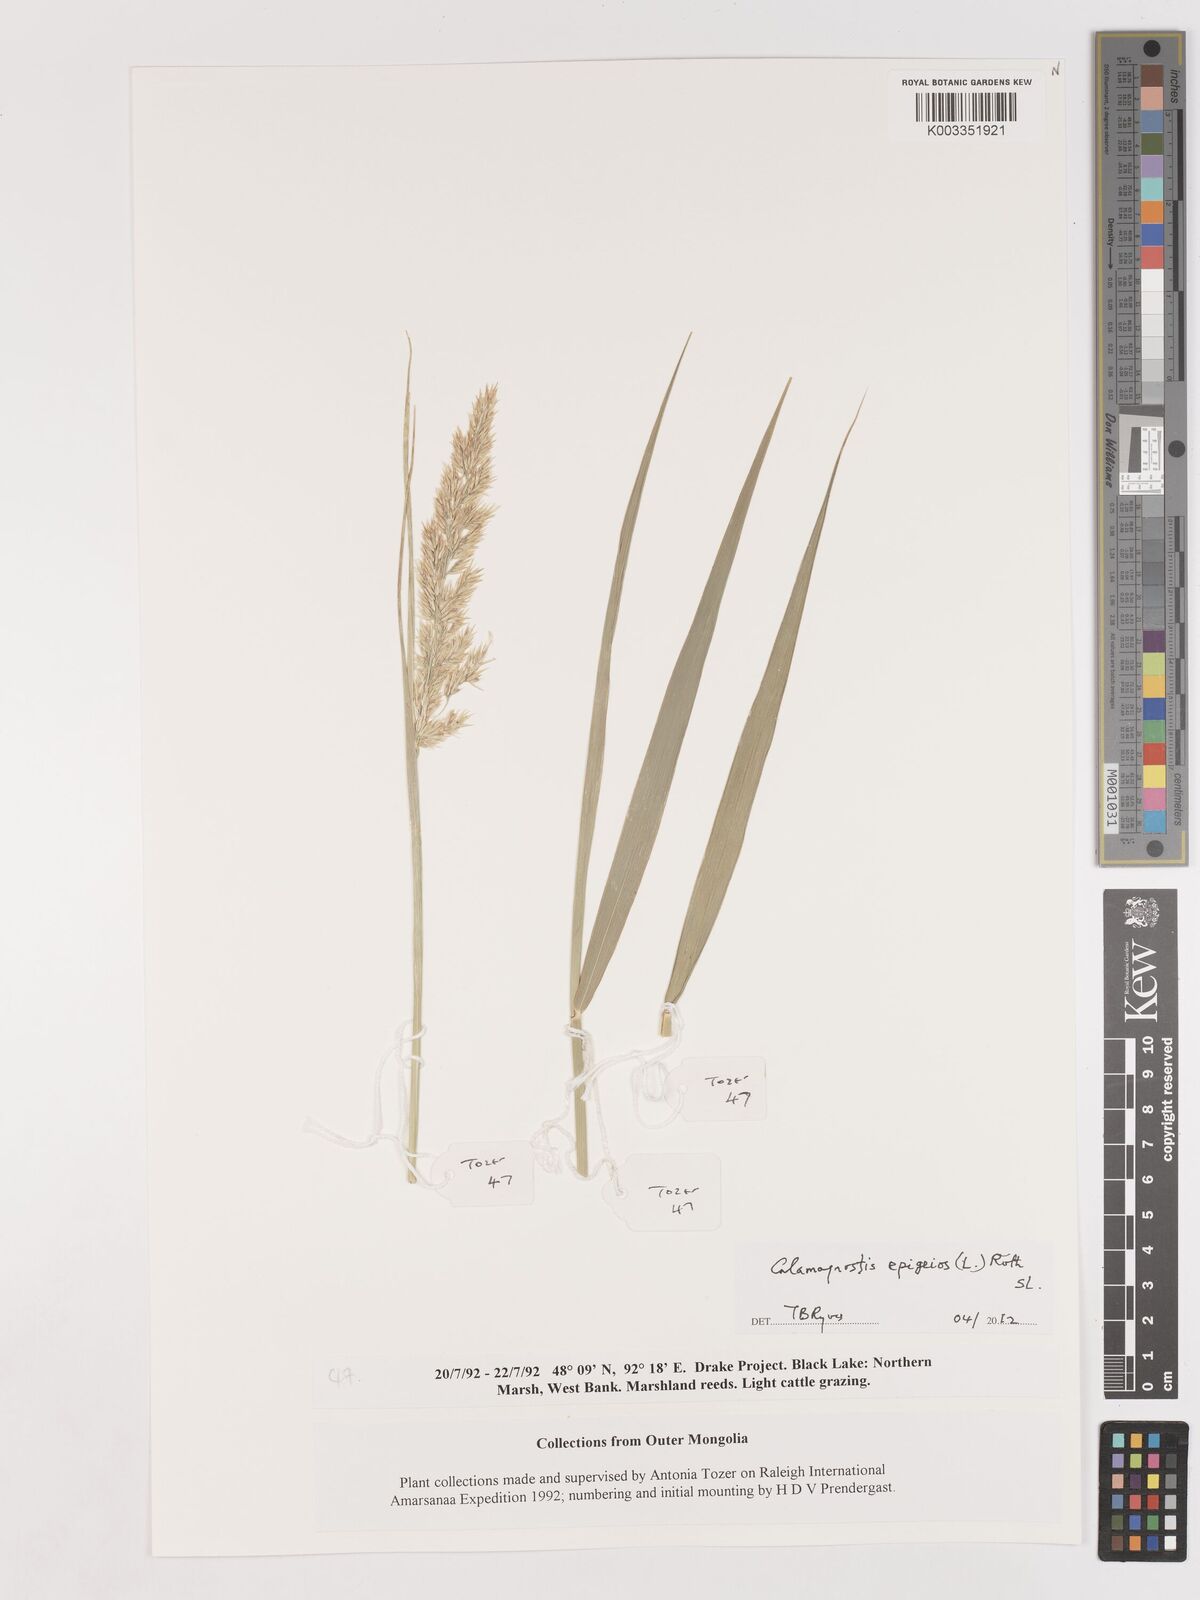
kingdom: Plantae
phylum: Tracheophyta
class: Liliopsida
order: Poales
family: Poaceae
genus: Calamagrostis
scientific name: Calamagrostis epigejos
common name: Wood small-reed
